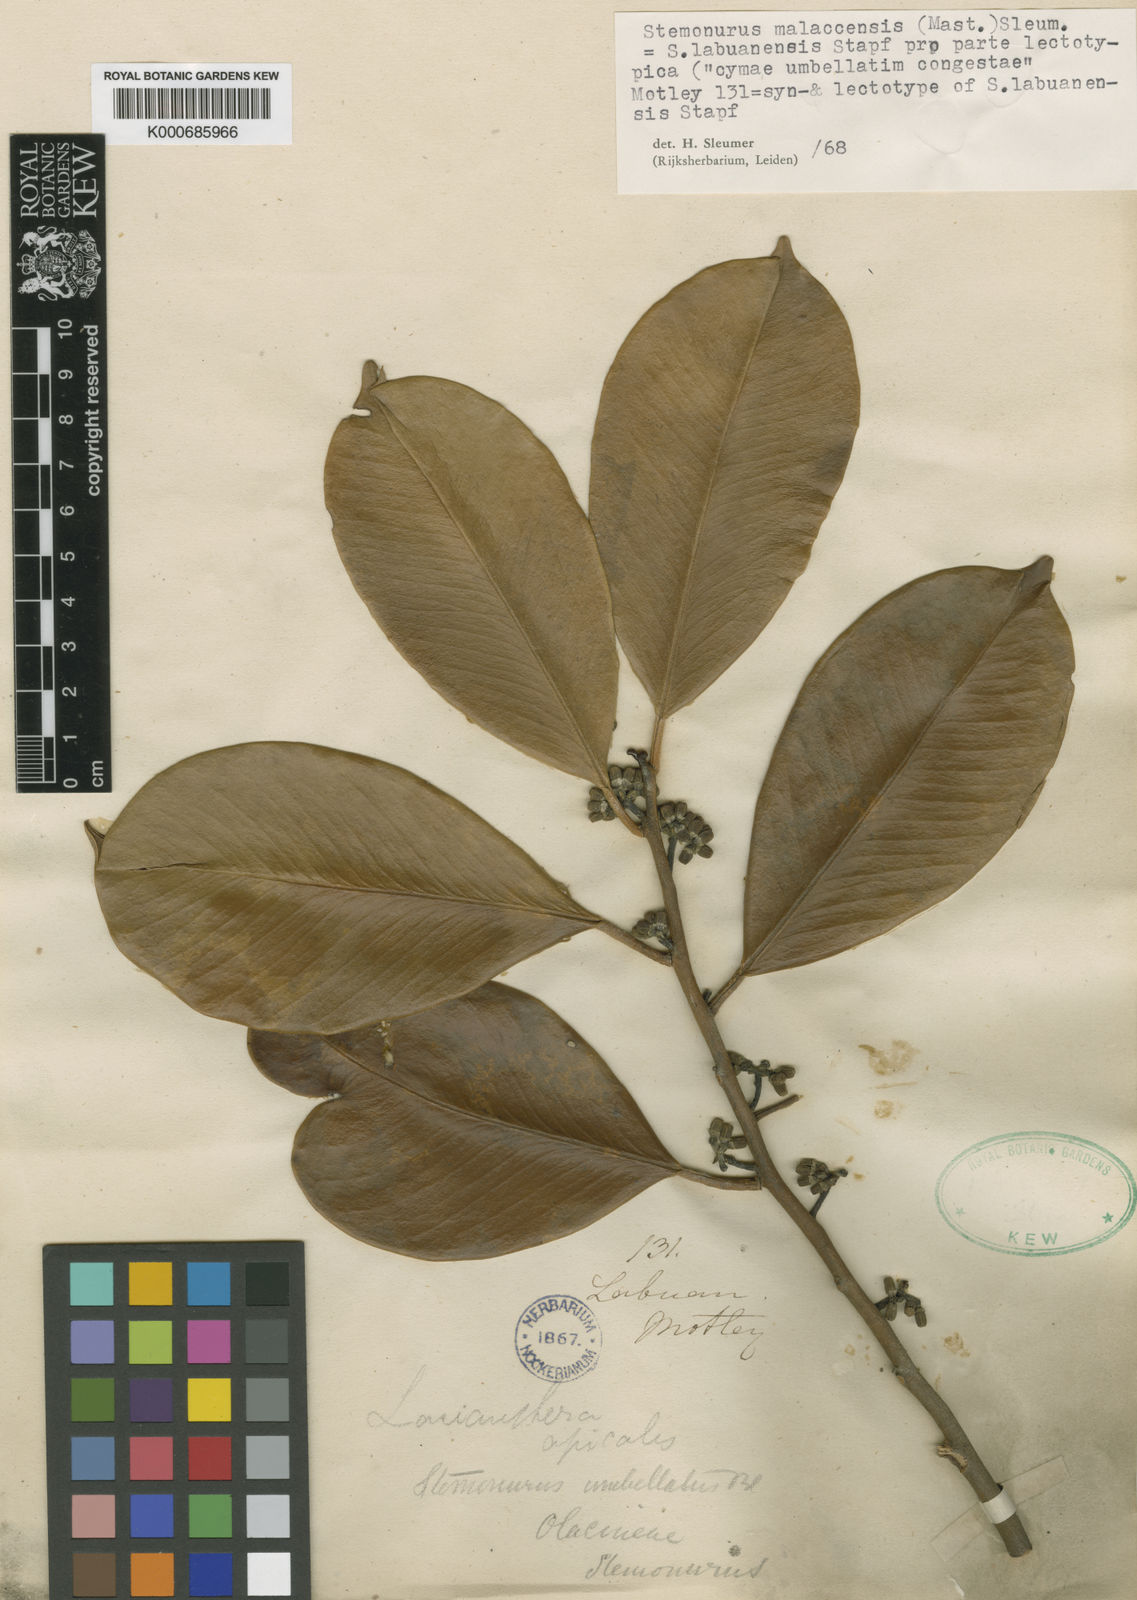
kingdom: Plantae
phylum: Tracheophyta
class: Magnoliopsida
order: Cardiopteridales
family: Stemonuraceae
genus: Stemonurus
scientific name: Stemonurus malaccensis
